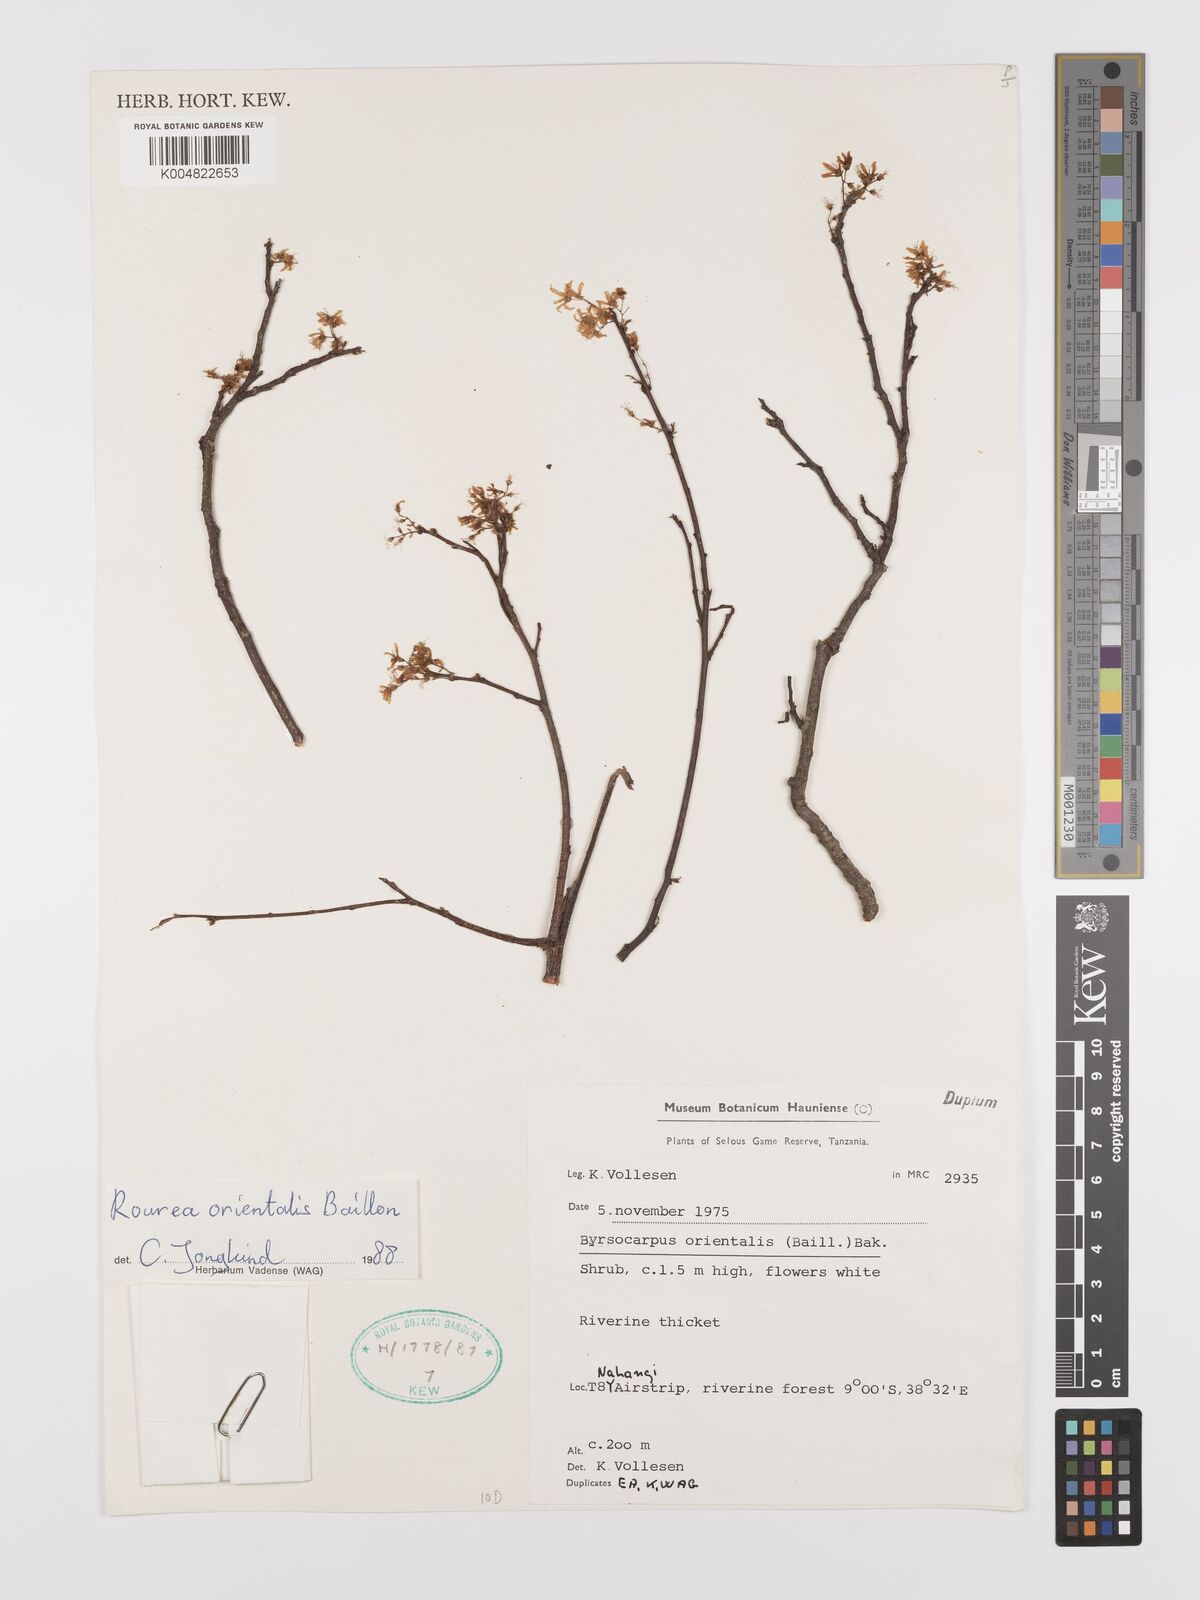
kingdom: Plantae
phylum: Tracheophyta
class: Magnoliopsida
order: Oxalidales
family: Connaraceae
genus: Rourea
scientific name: Rourea orientalis
